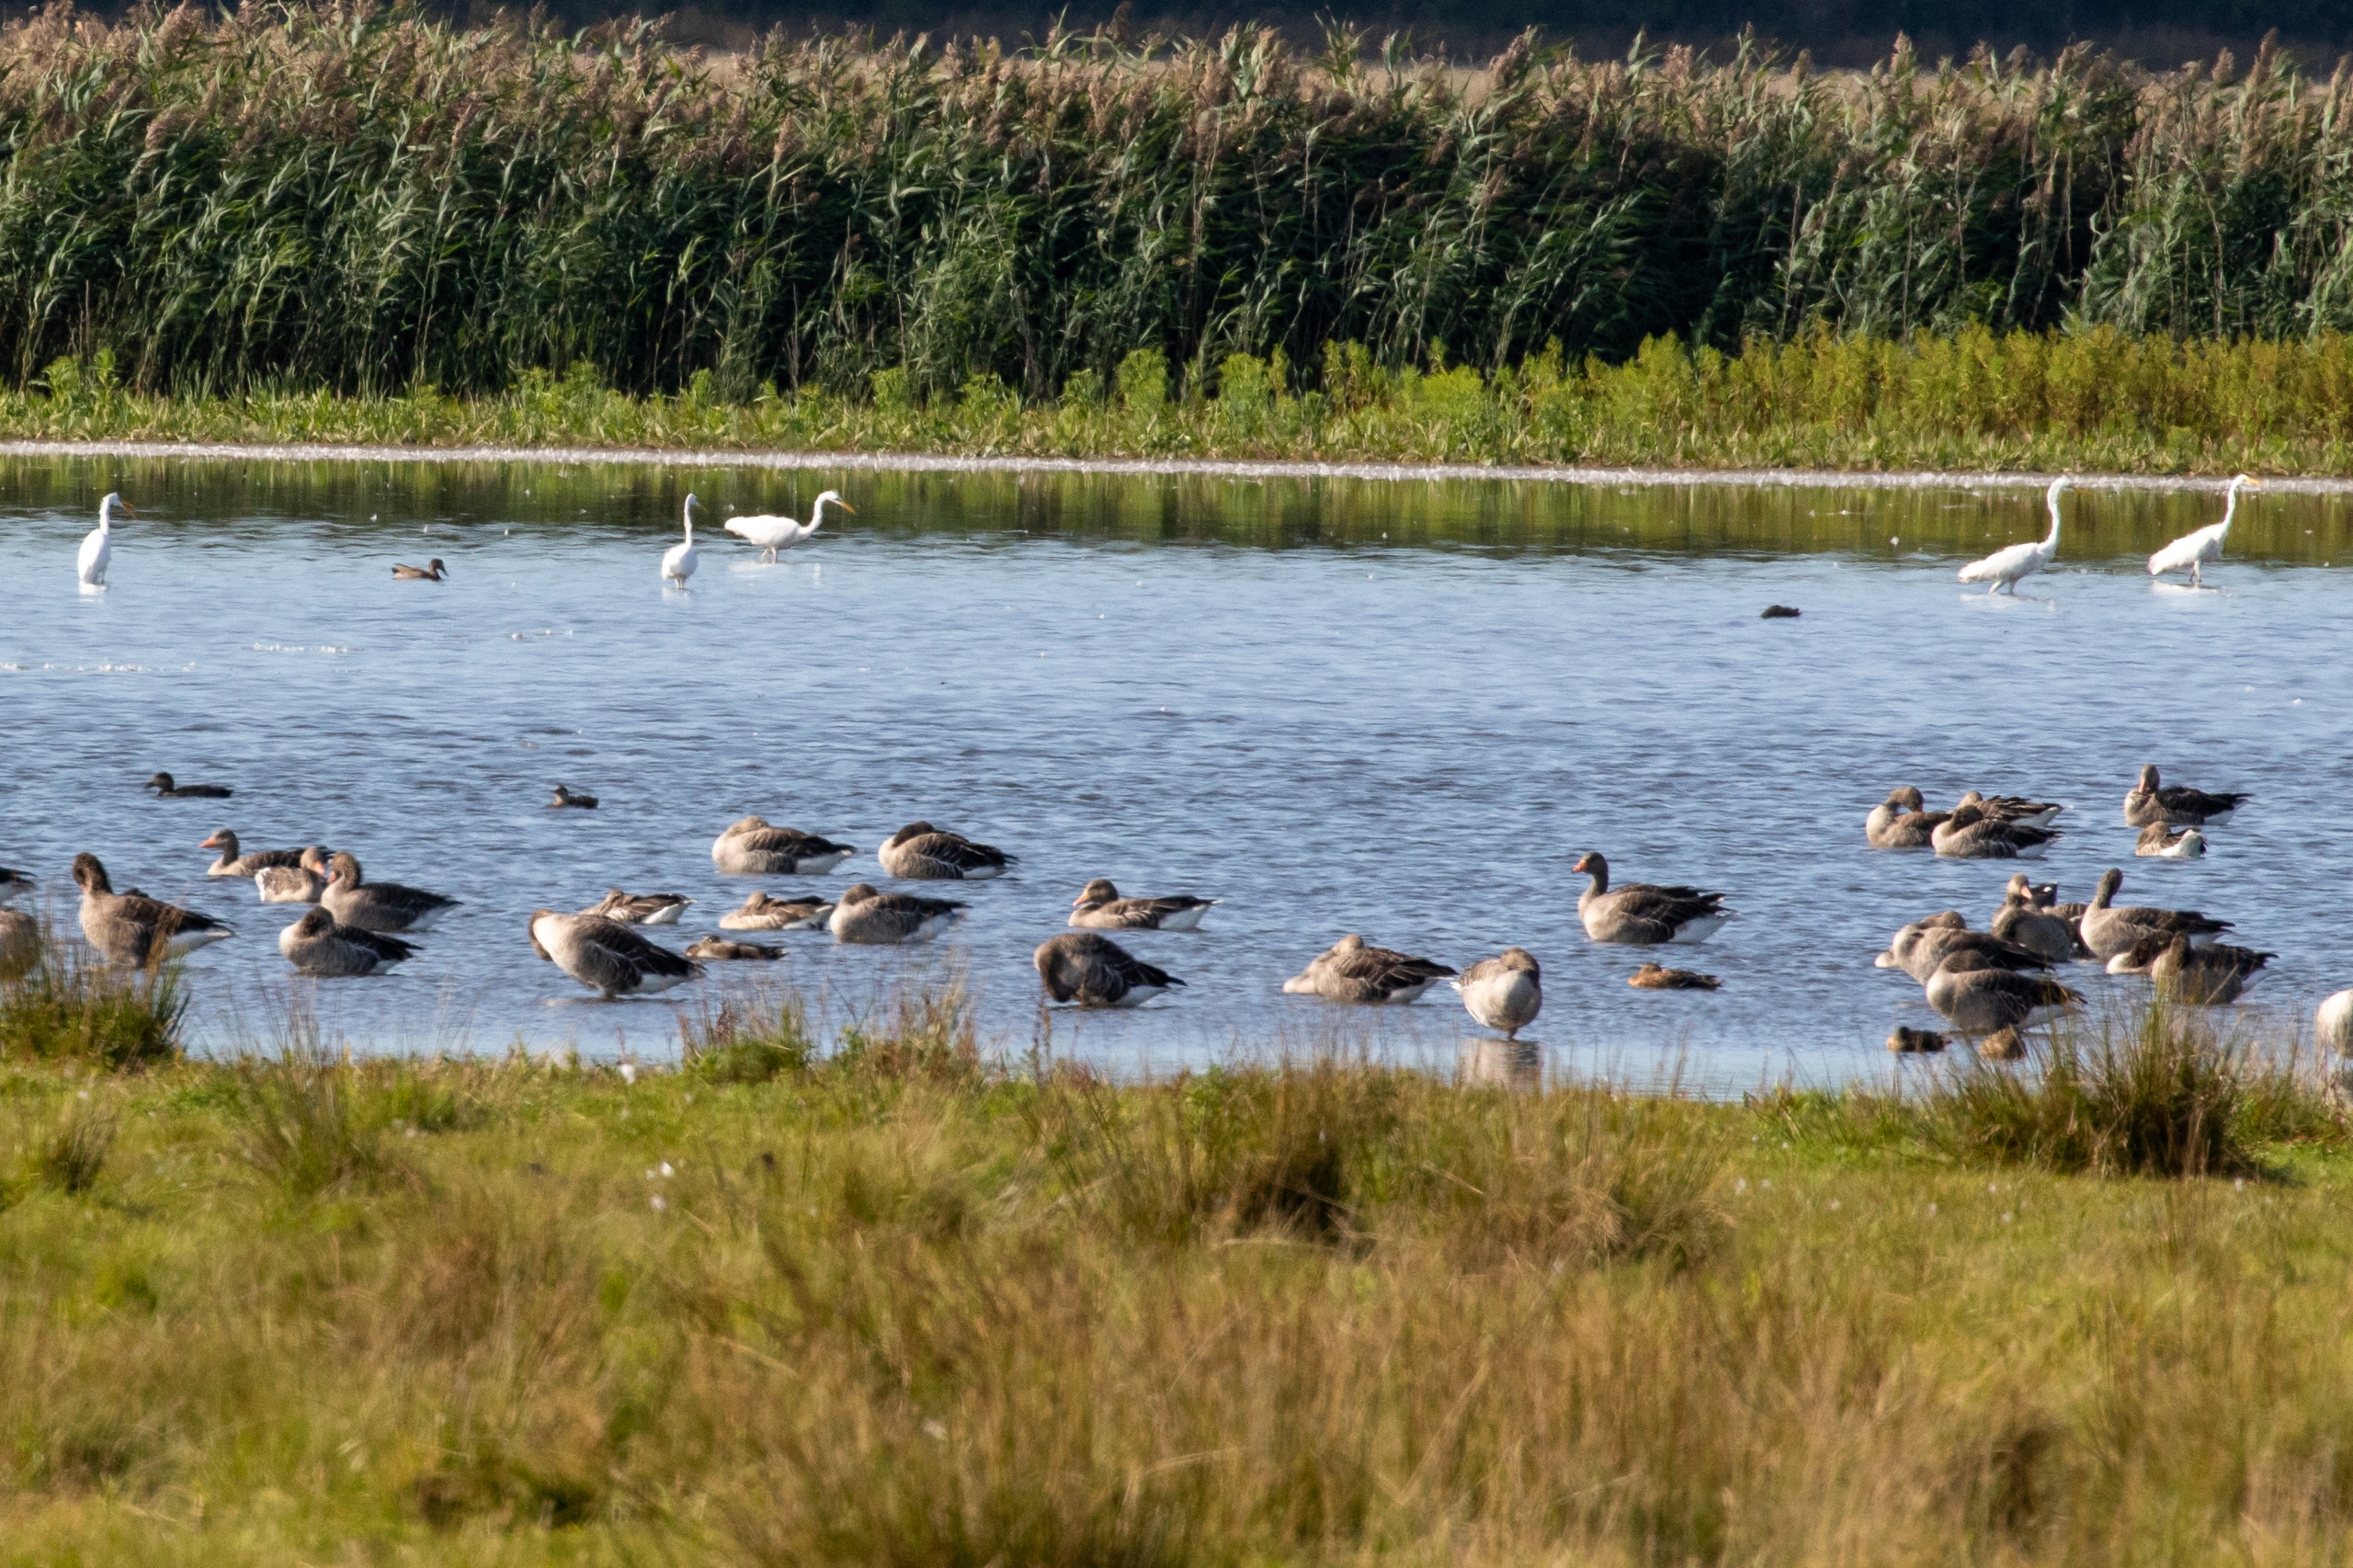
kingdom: Animalia
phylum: Chordata
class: Aves
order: Anseriformes
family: Anatidae
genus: Anser
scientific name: Anser anser
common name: Grågås
